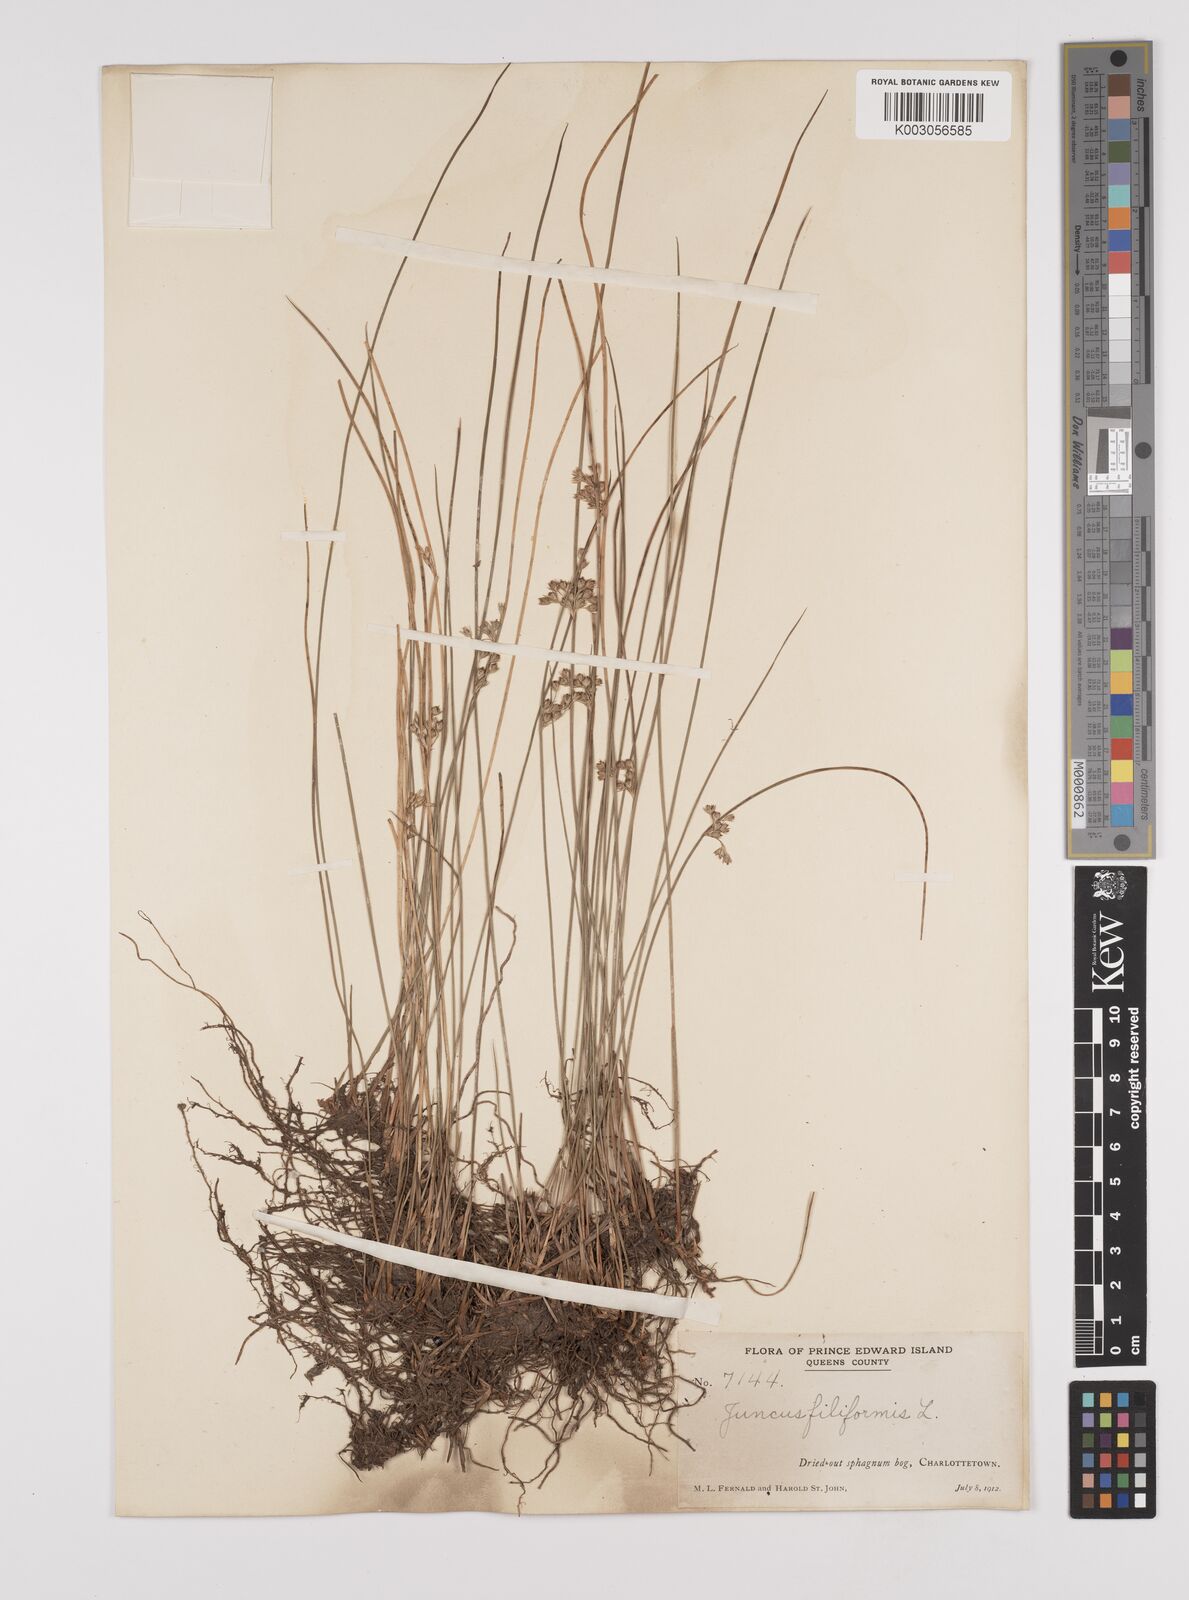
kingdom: Plantae
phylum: Tracheophyta
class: Liliopsida
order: Poales
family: Juncaceae
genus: Juncus
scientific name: Juncus filiformis
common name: Thread rush
